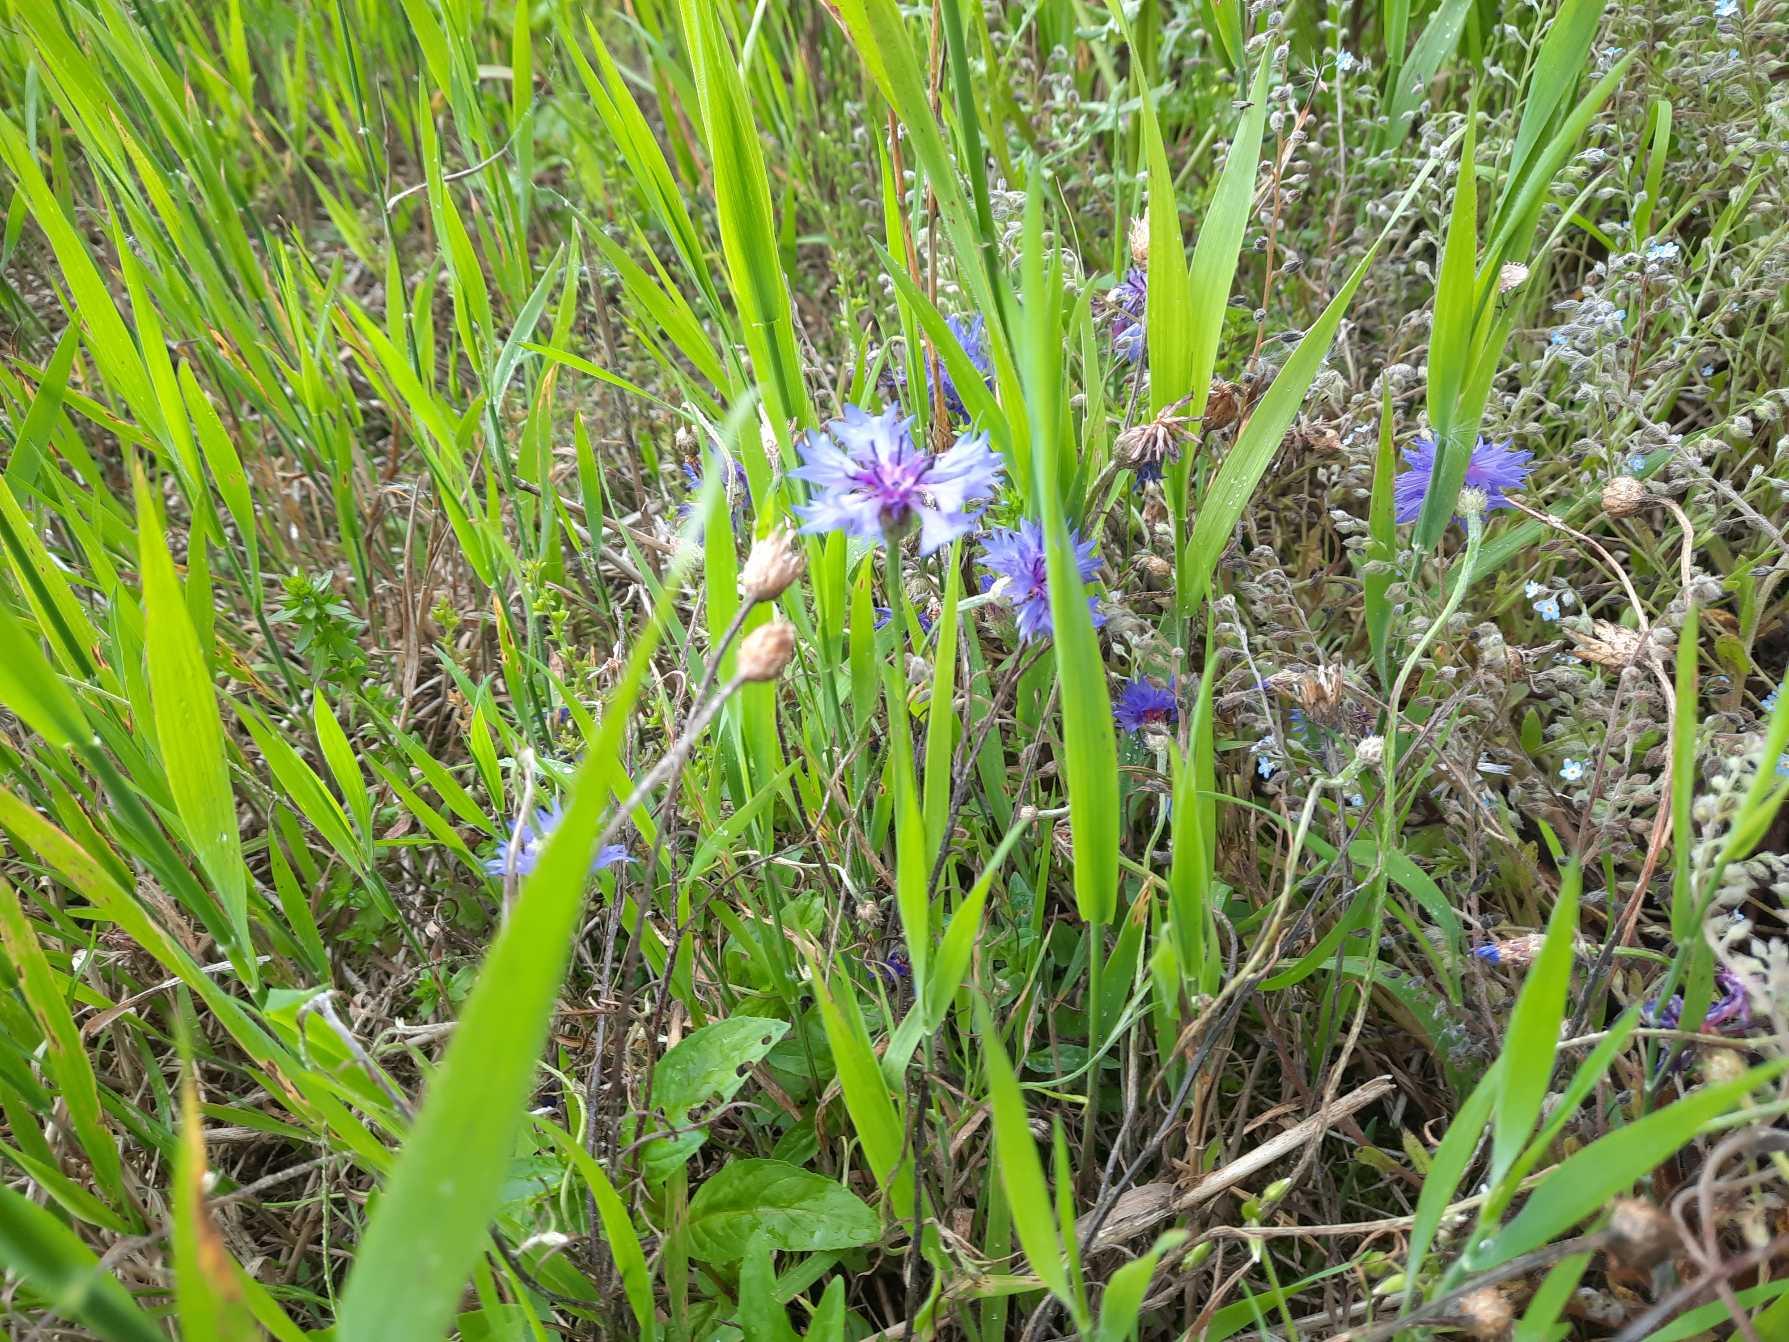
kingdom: Plantae
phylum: Tracheophyta
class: Magnoliopsida
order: Asterales
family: Asteraceae
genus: Centaurea
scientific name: Centaurea cyanus
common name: Kornblomst
